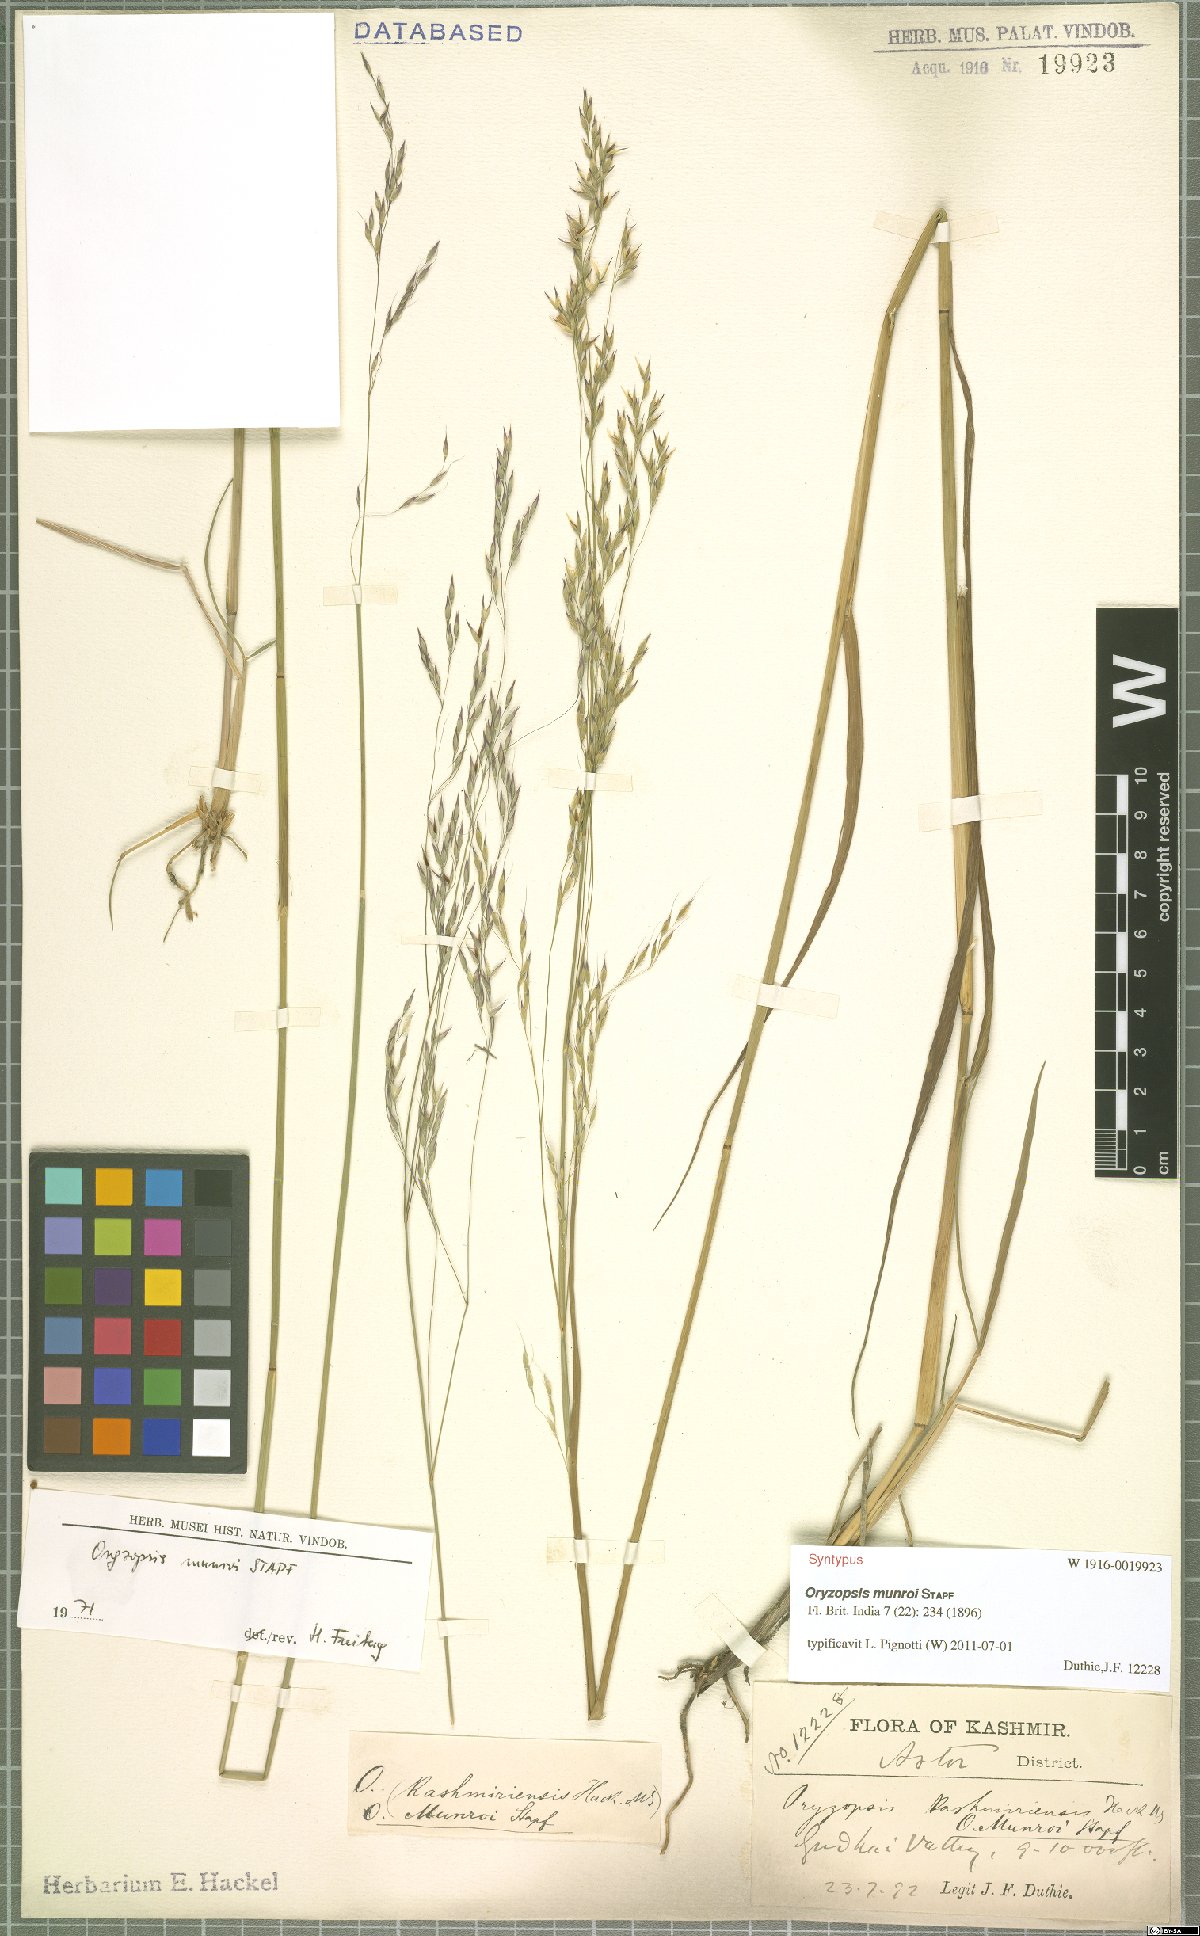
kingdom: Plantae
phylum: Tracheophyta
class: Liliopsida
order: Poales
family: Poaceae
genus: Piptatherum
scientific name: Piptatherum munroi
